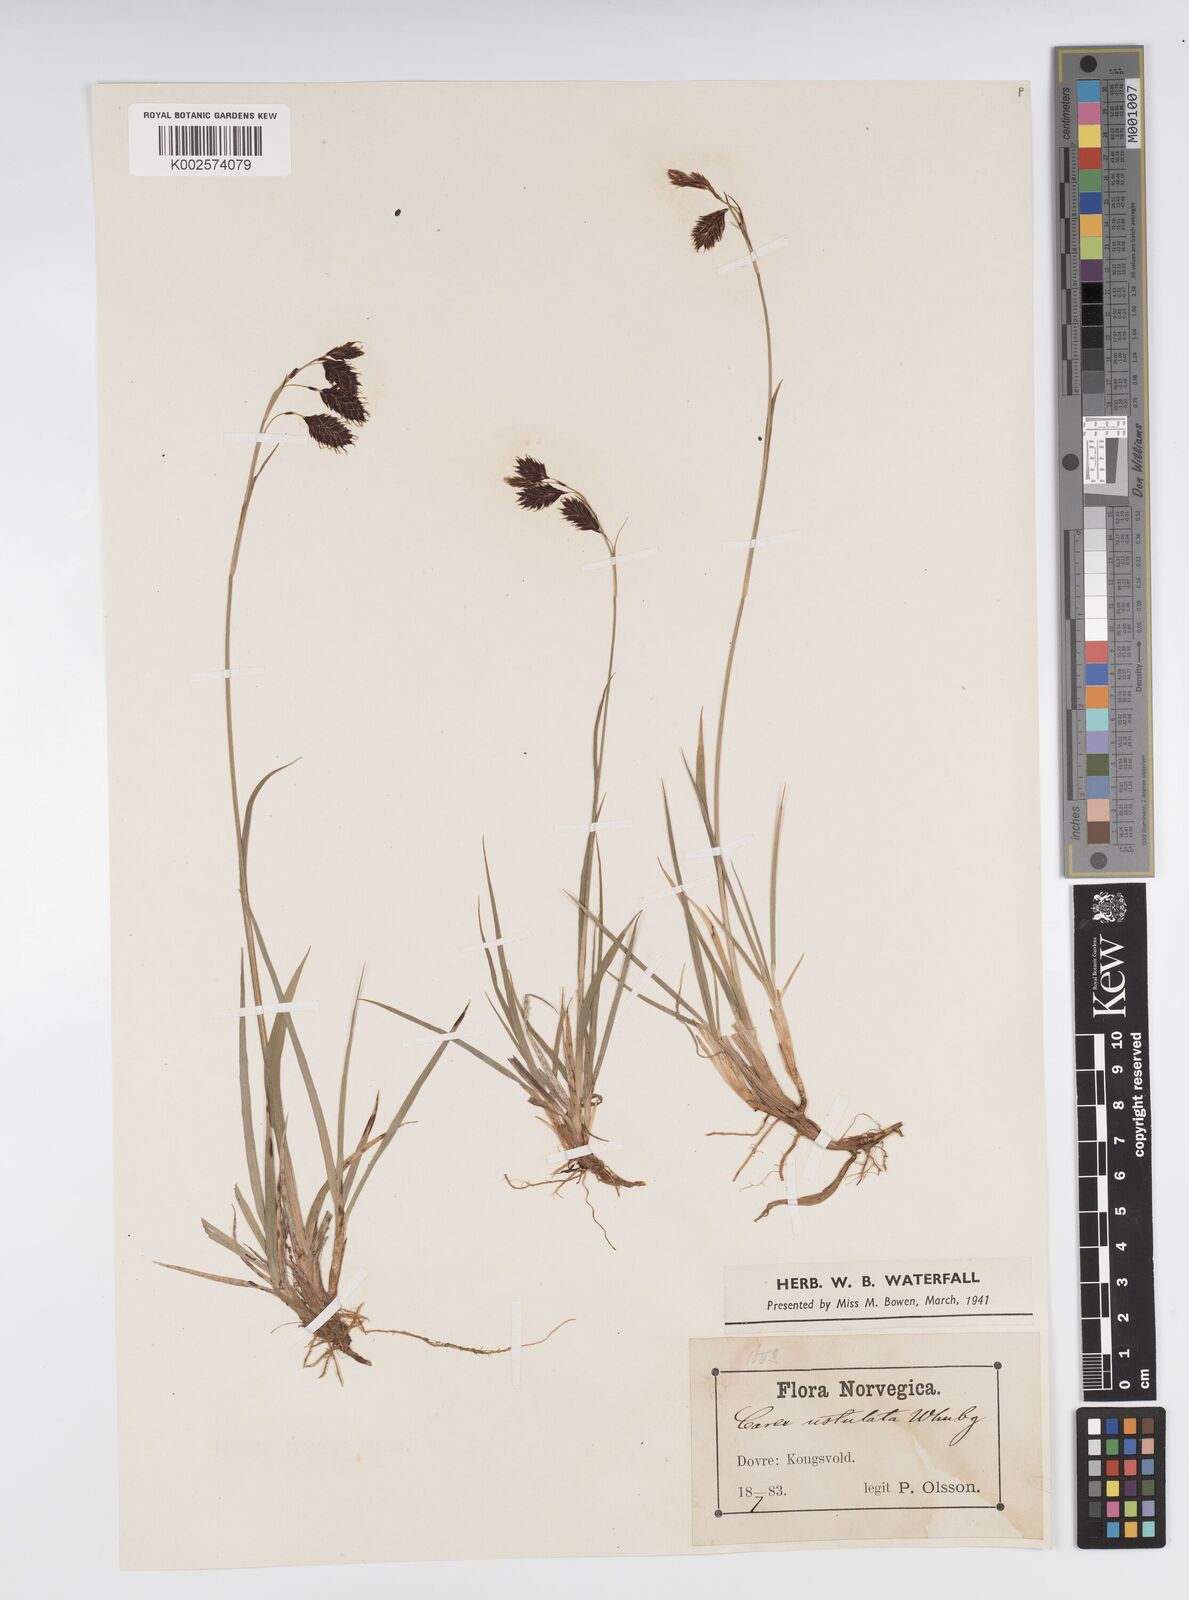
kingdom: Plantae
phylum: Tracheophyta
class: Liliopsida
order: Poales
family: Cyperaceae
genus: Carex
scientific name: Carex atrofusca
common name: Scorched alpine-sedge
